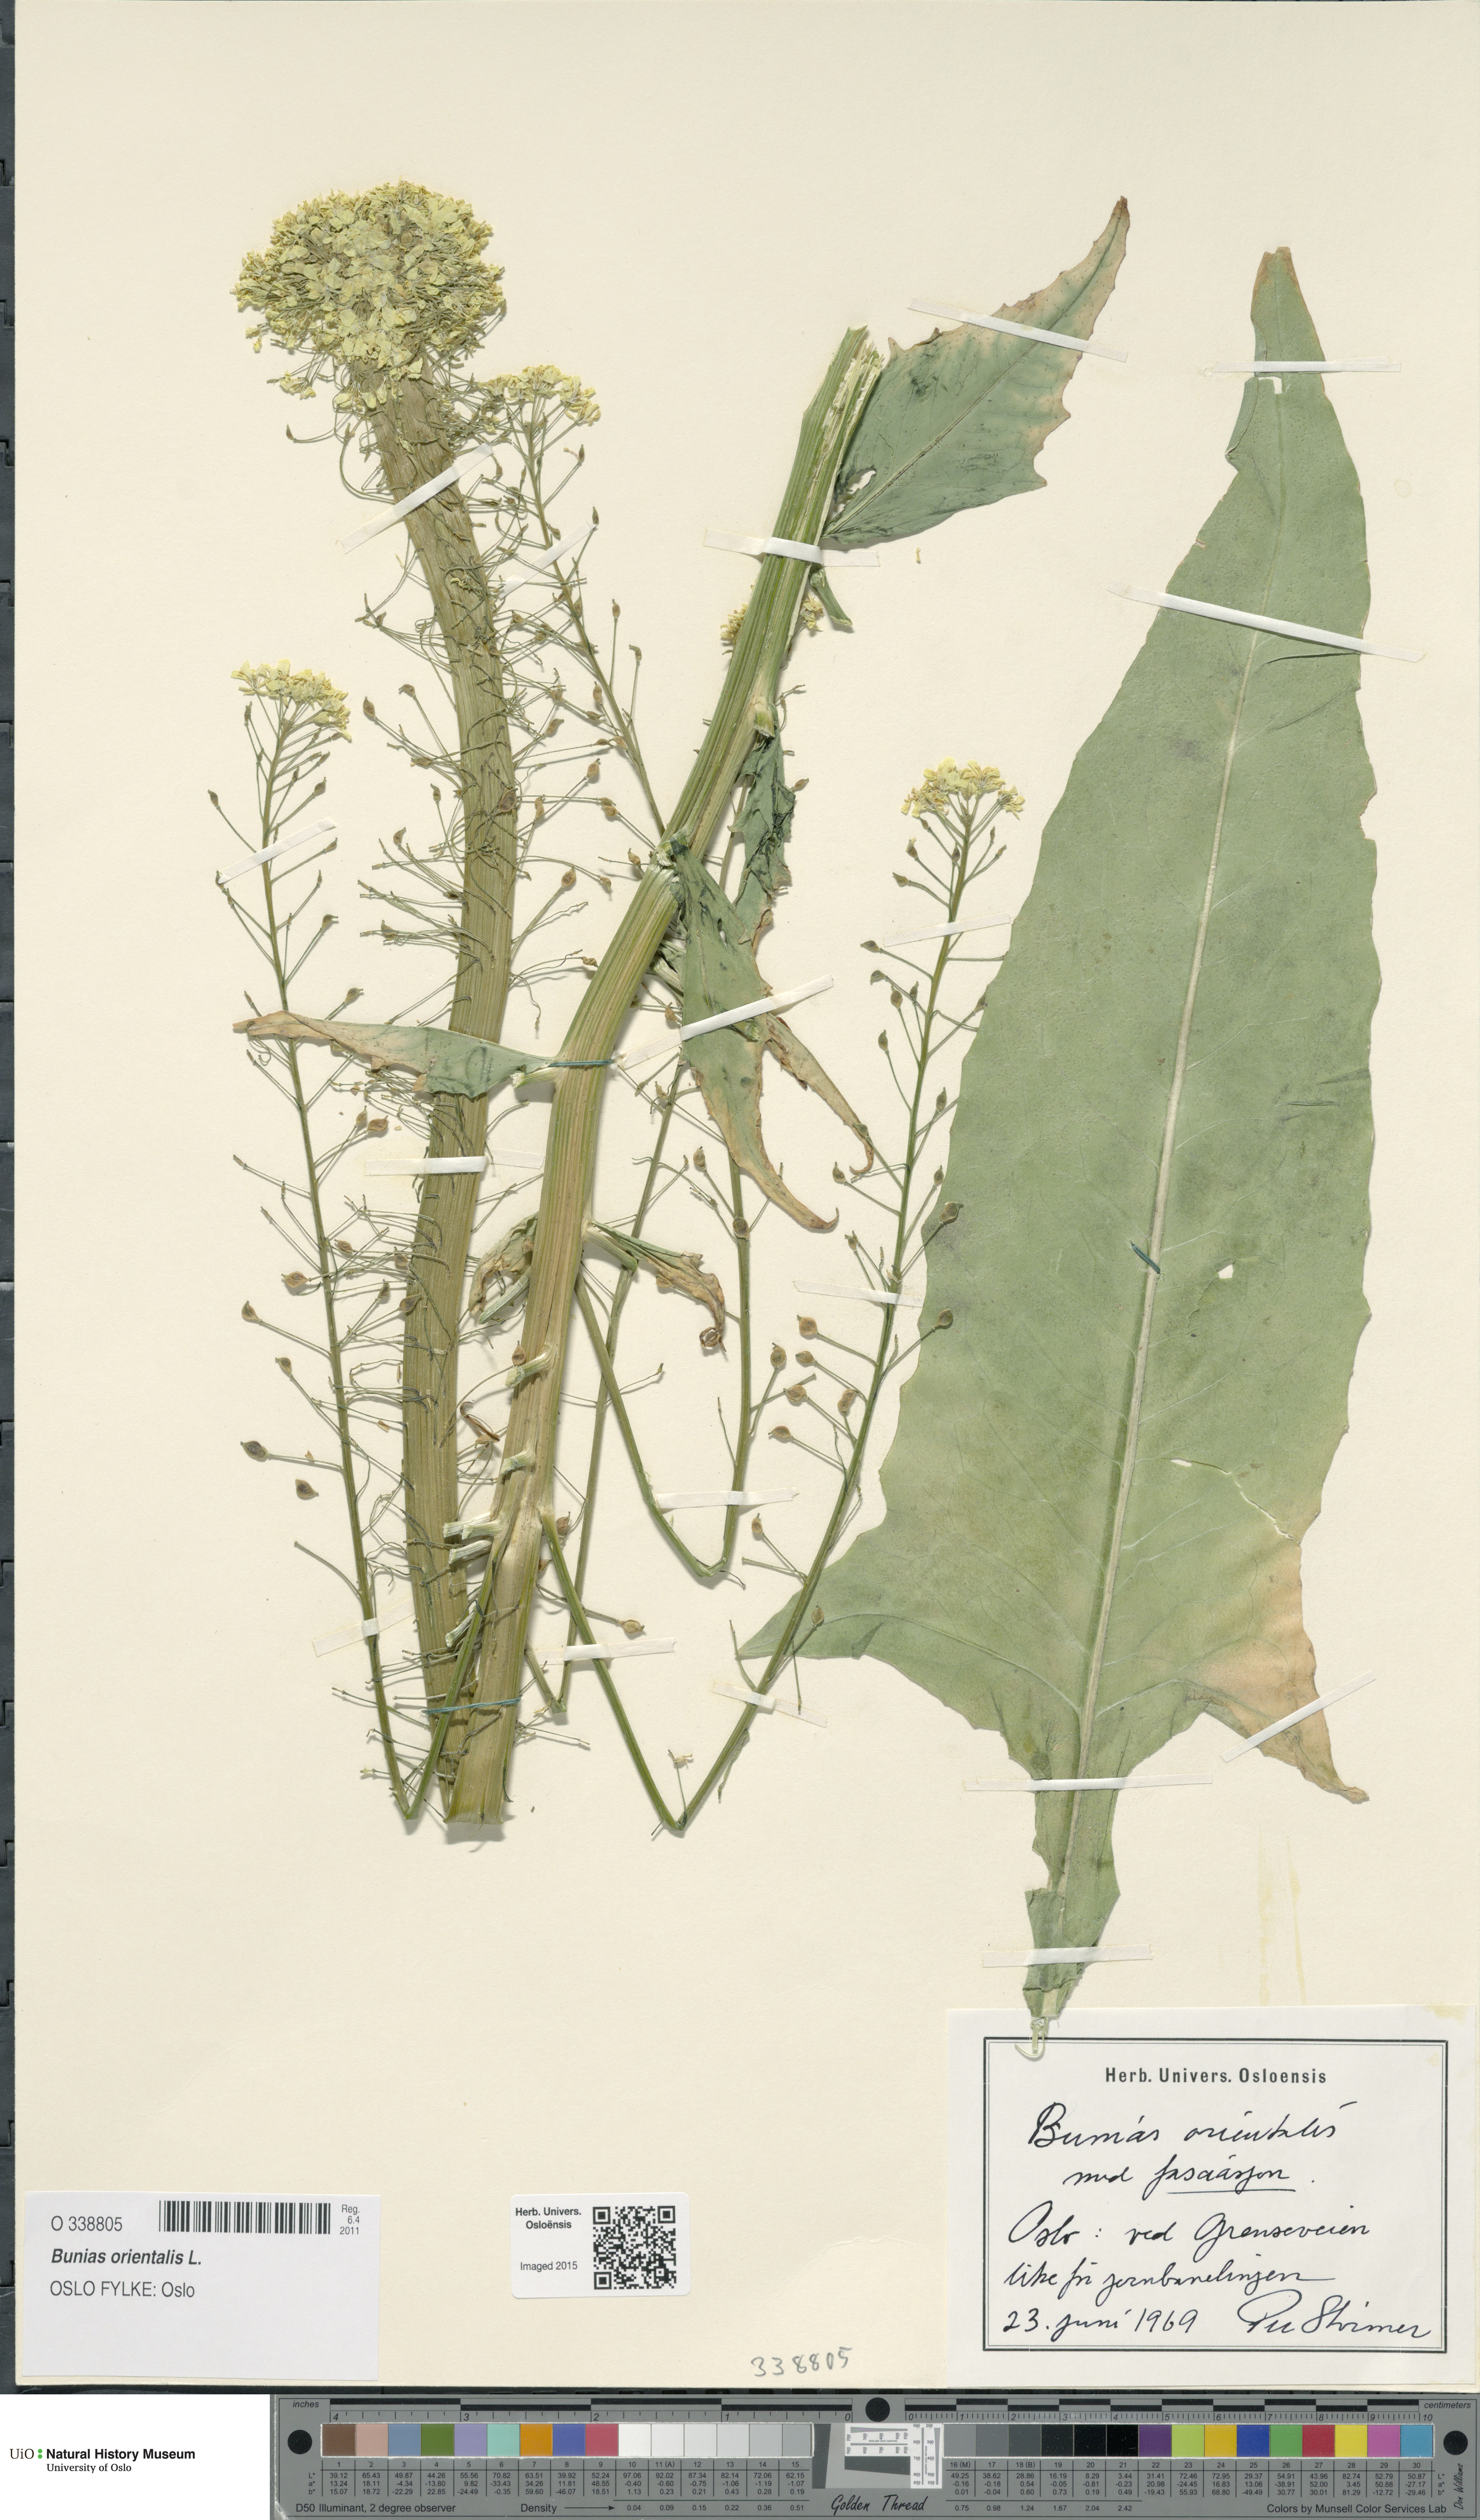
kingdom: Plantae
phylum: Tracheophyta
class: Magnoliopsida
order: Brassicales
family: Brassicaceae
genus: Bunias
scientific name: Bunias orientalis
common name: Warty-cabbage
